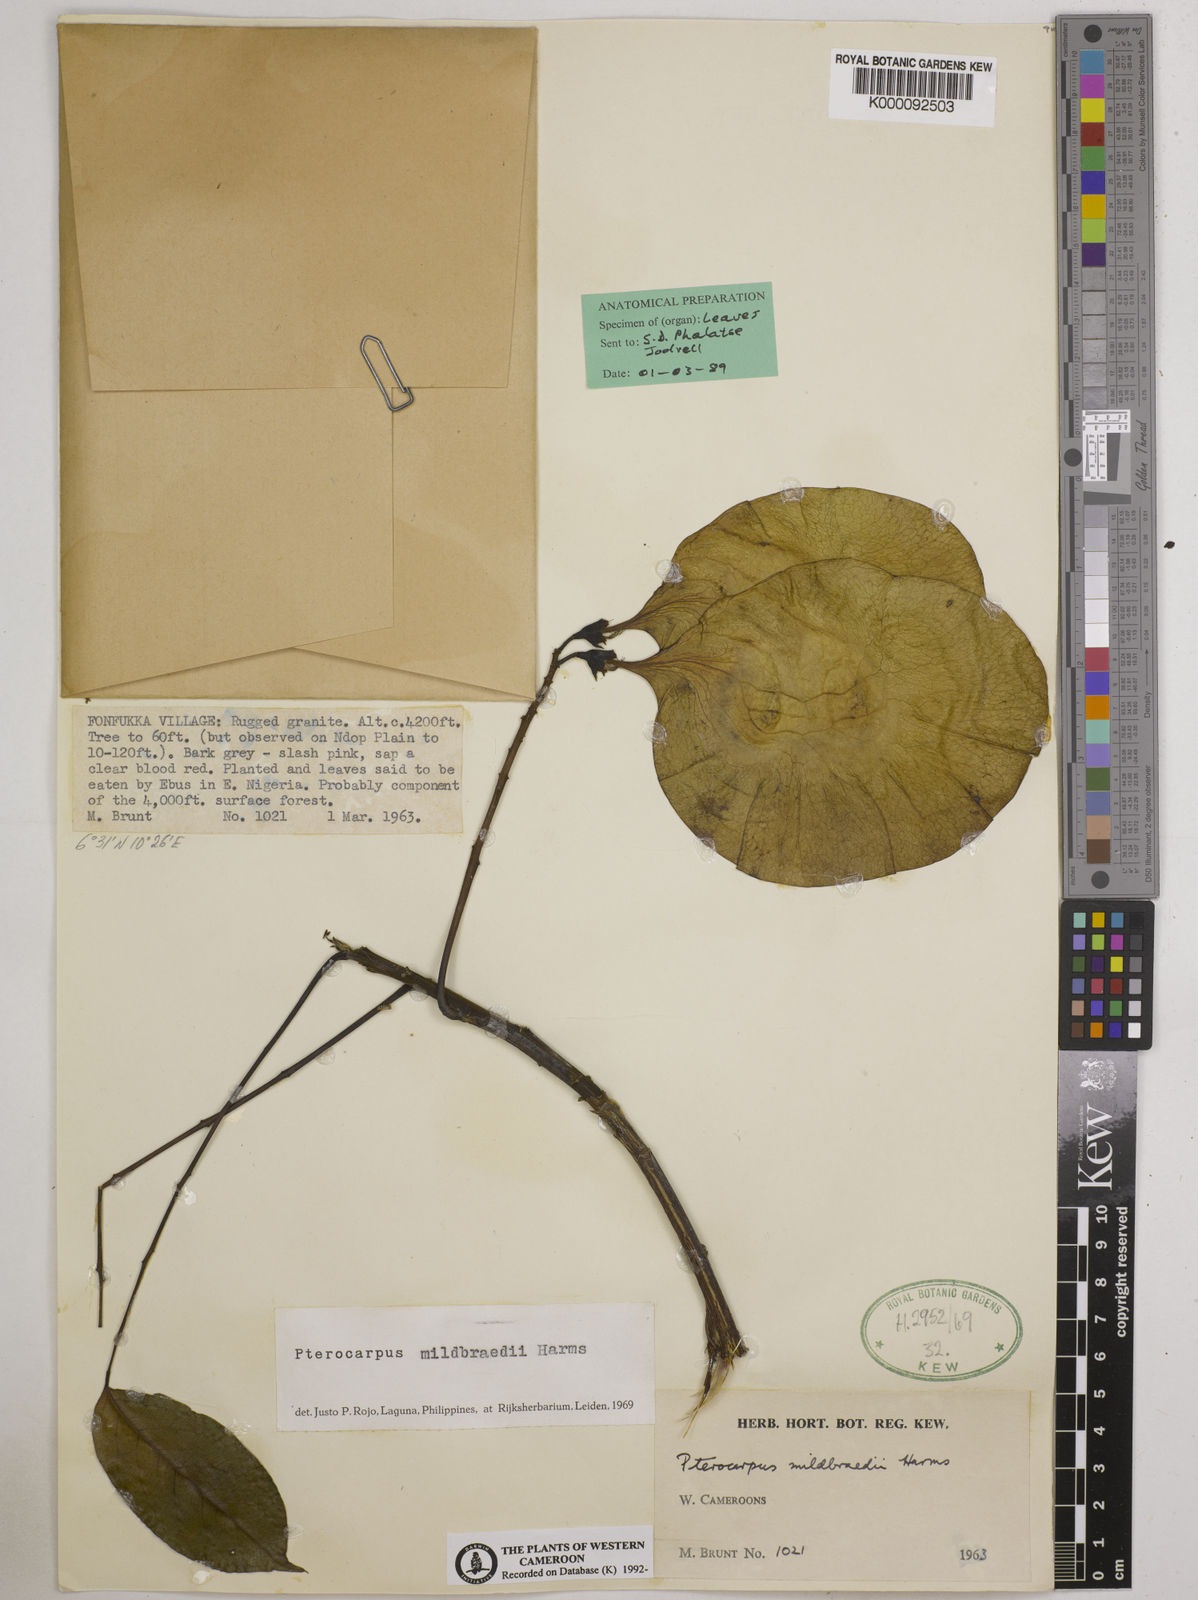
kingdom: Plantae
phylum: Tracheophyta
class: Magnoliopsida
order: Fabales
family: Fabaceae
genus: Pterocarpus
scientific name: Pterocarpus mildbraedii
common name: White padouk
